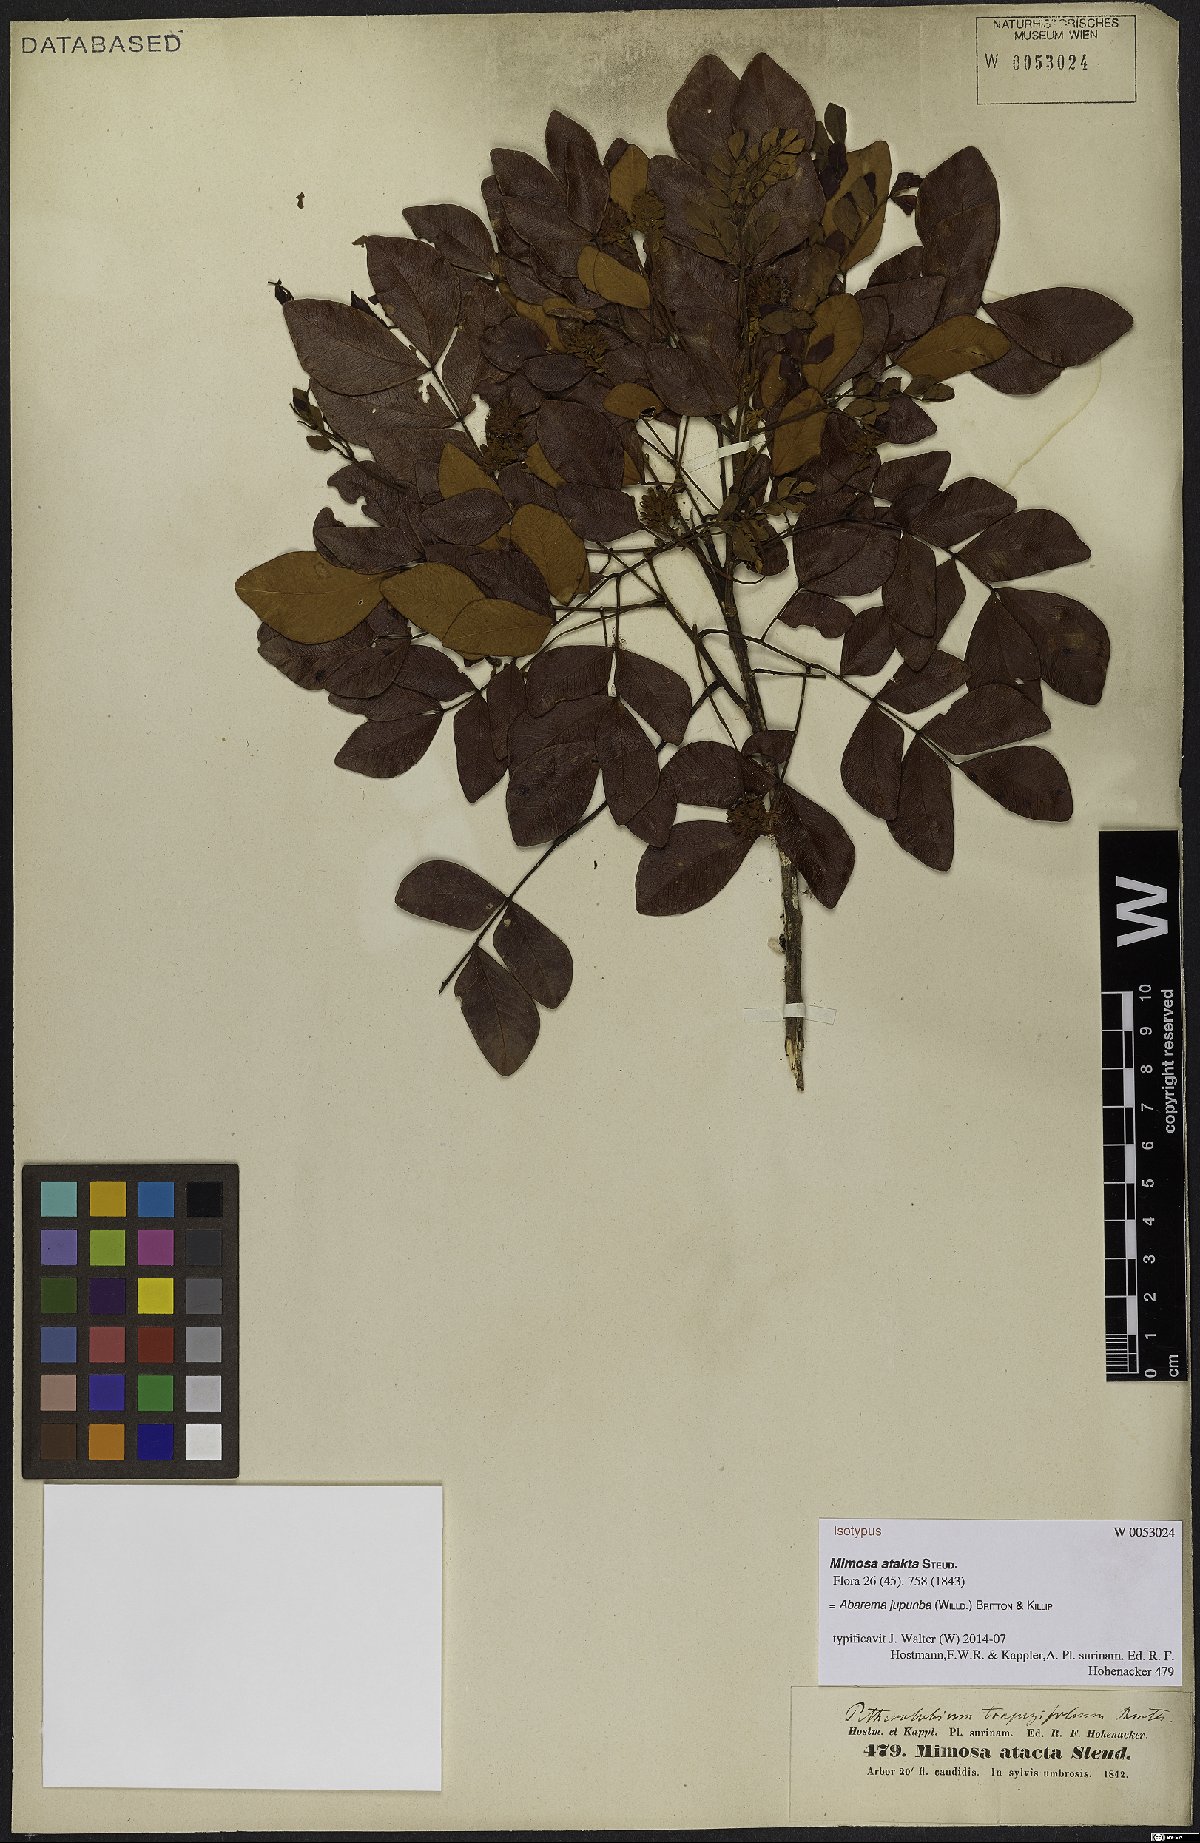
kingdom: Plantae
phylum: Tracheophyta
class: Magnoliopsida
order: Fabales
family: Fabaceae
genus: Jupunba
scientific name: Jupunba trapezifolia
